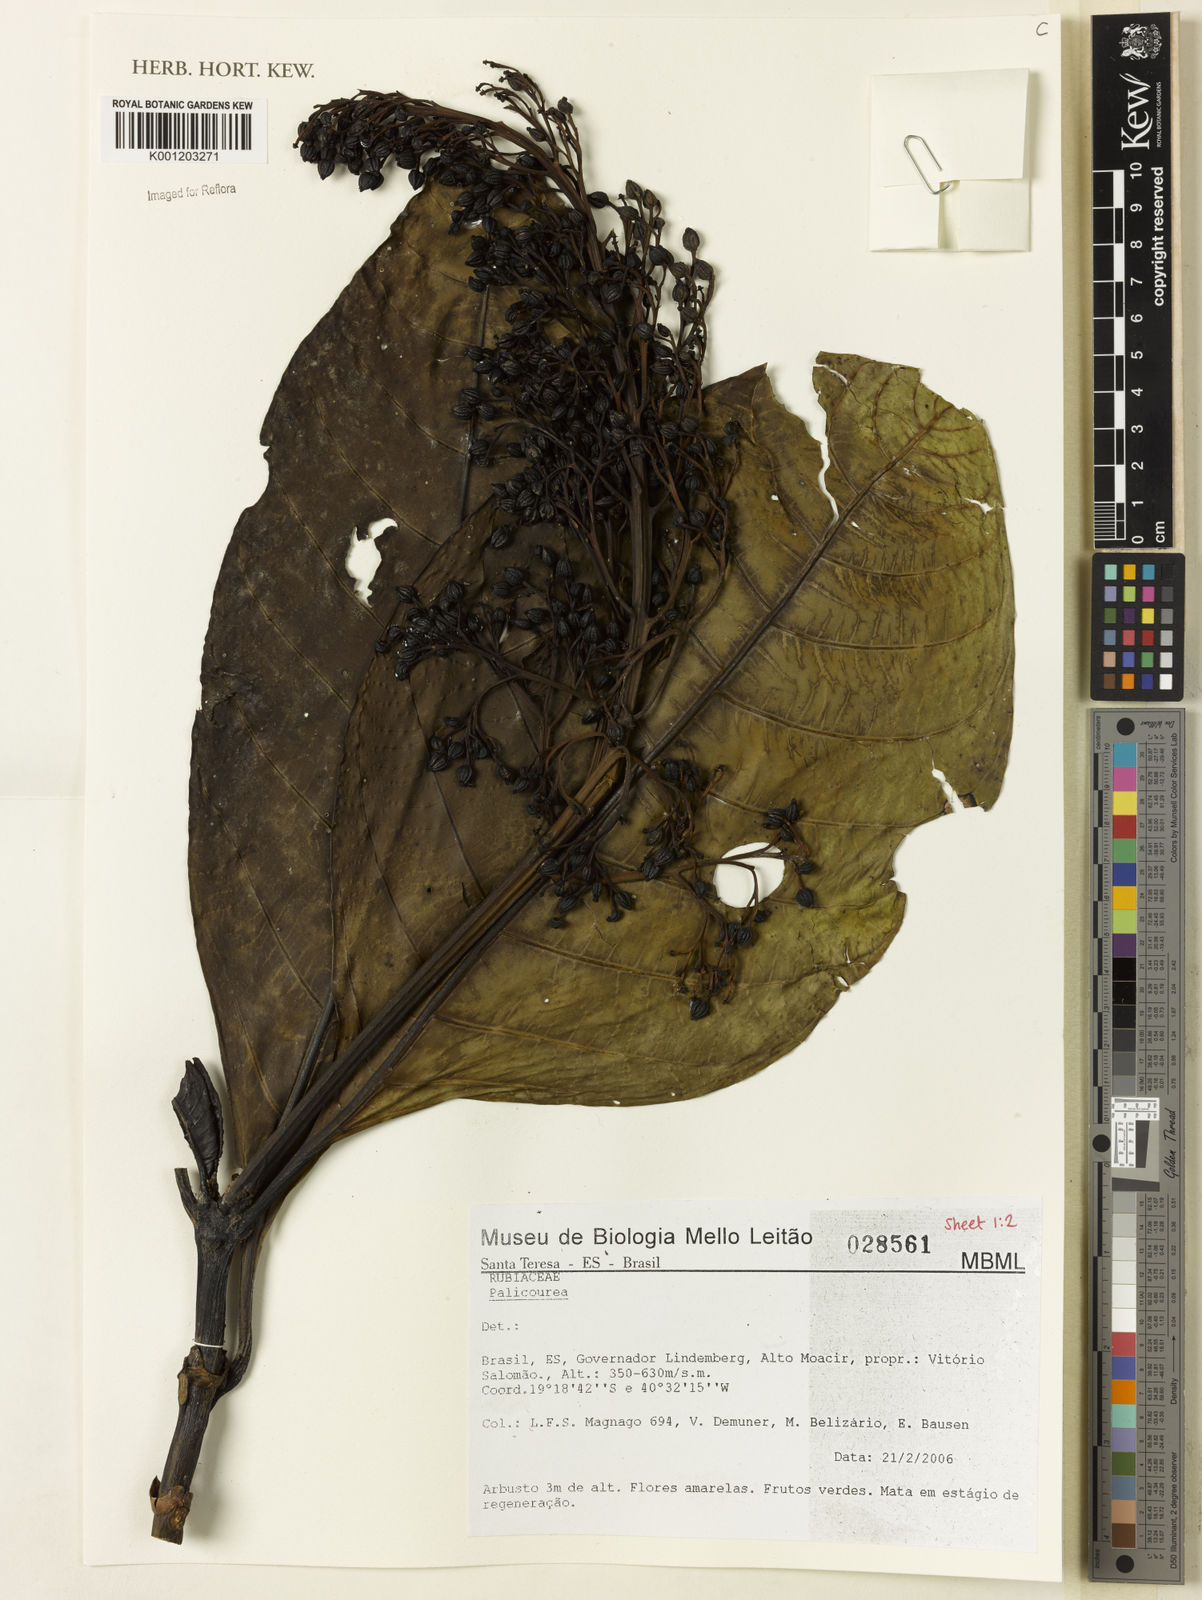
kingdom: Plantae
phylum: Tracheophyta
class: Magnoliopsida
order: Gentianales
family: Rubiaceae
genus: Palicourea
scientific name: Palicourea
